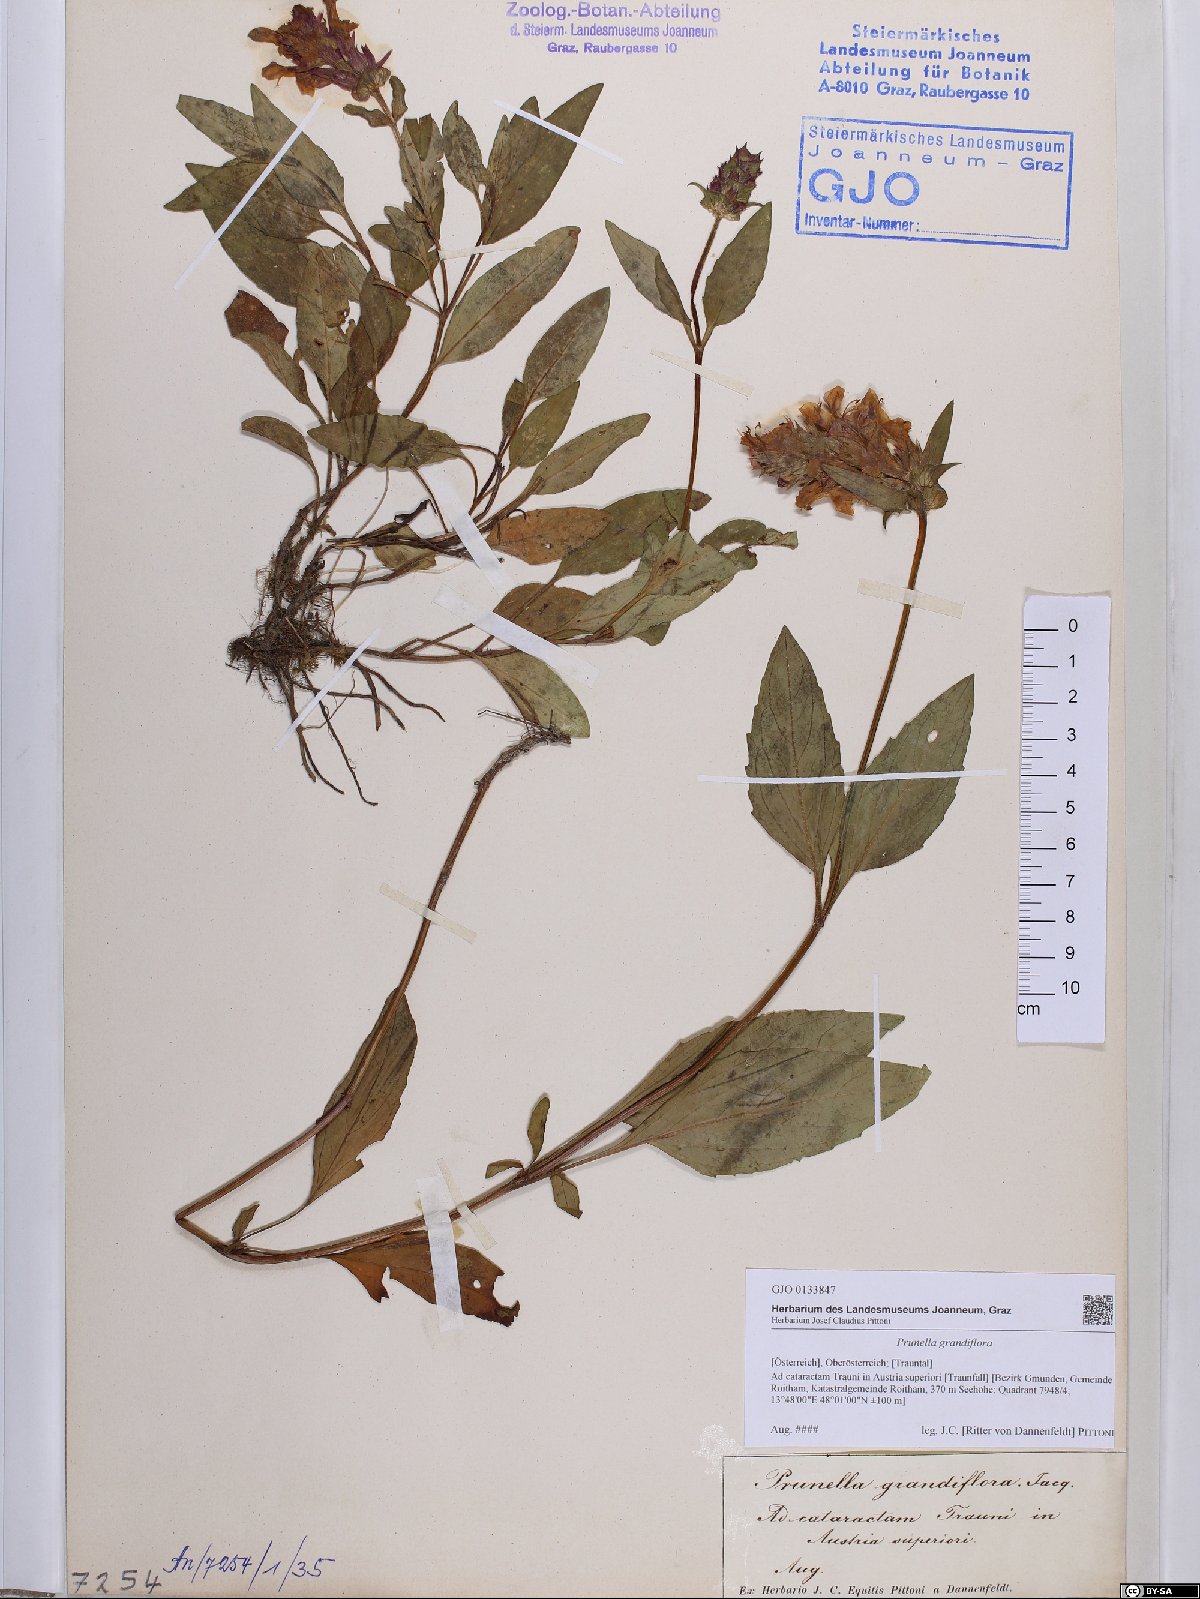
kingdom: Plantae
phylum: Tracheophyta
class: Magnoliopsida
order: Lamiales
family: Lamiaceae
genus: Prunella
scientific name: Prunella grandiflora
